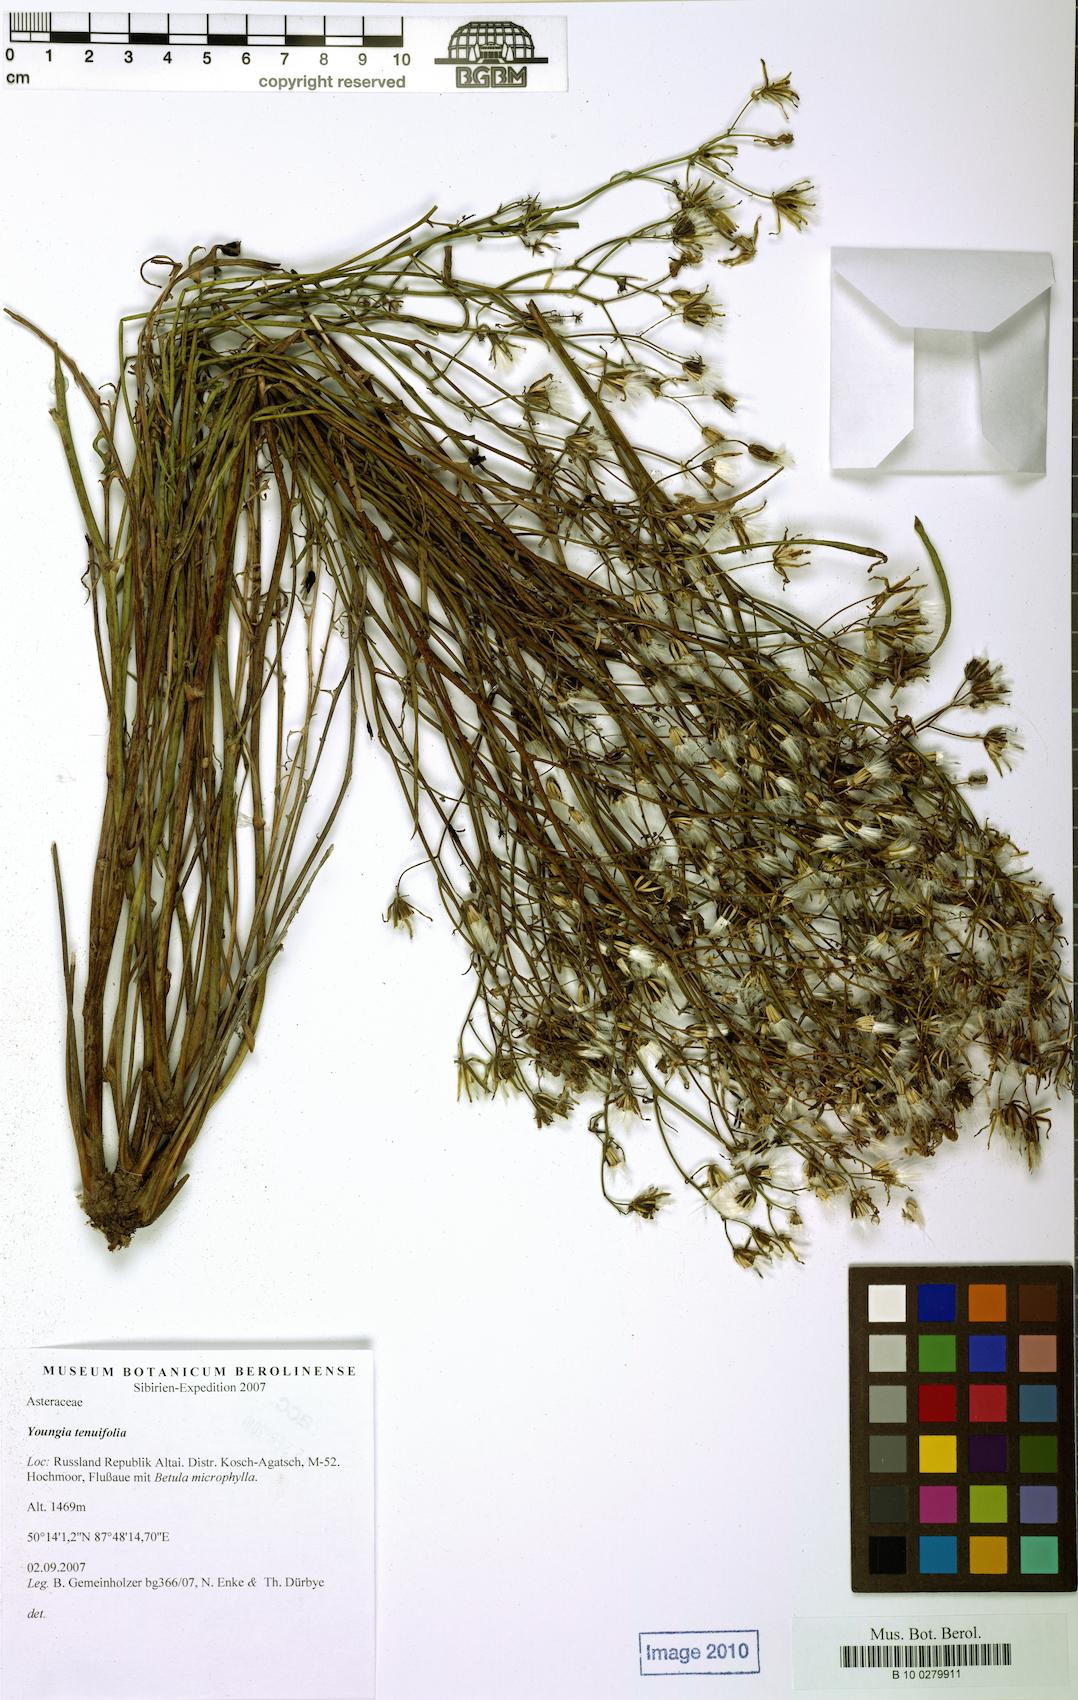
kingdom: Plantae
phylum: Tracheophyta
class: Magnoliopsida
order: Asterales
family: Asteraceae
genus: Crepidiastrum
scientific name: Crepidiastrum tenuifolium
